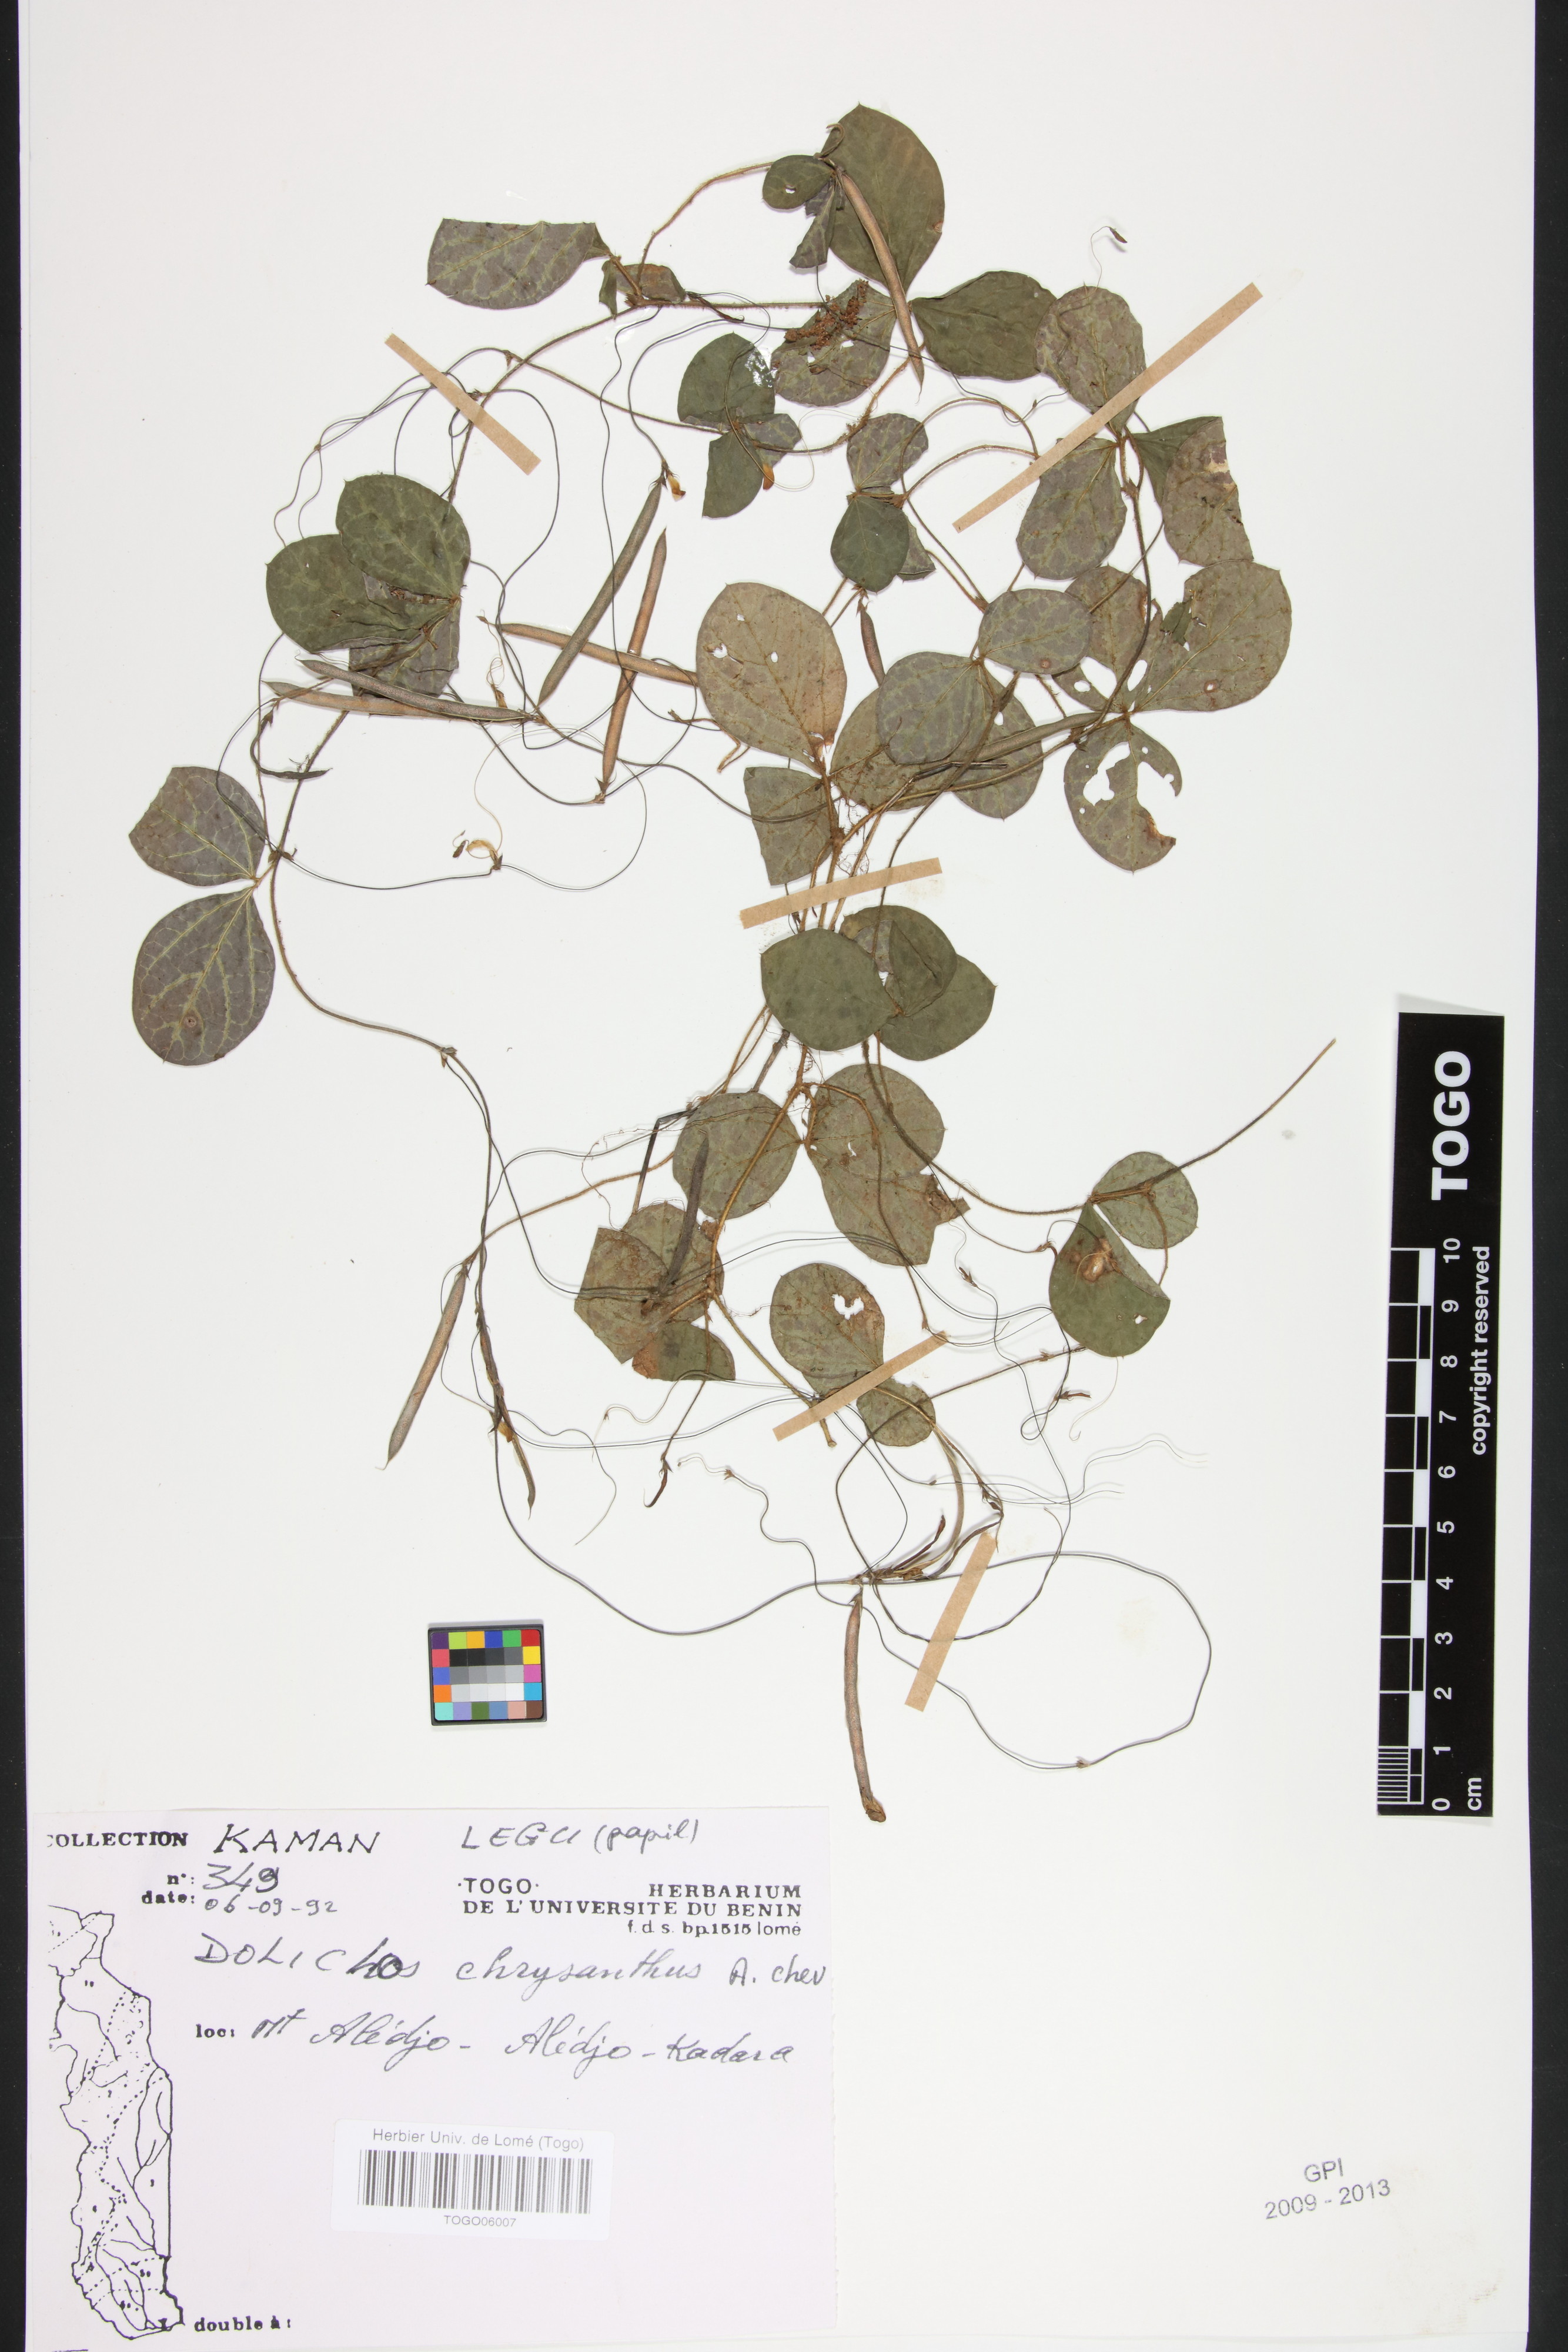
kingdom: Plantae
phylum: Tracheophyta
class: Magnoliopsida
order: Fabales
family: Fabaceae
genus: Dolichos
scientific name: Dolichos
